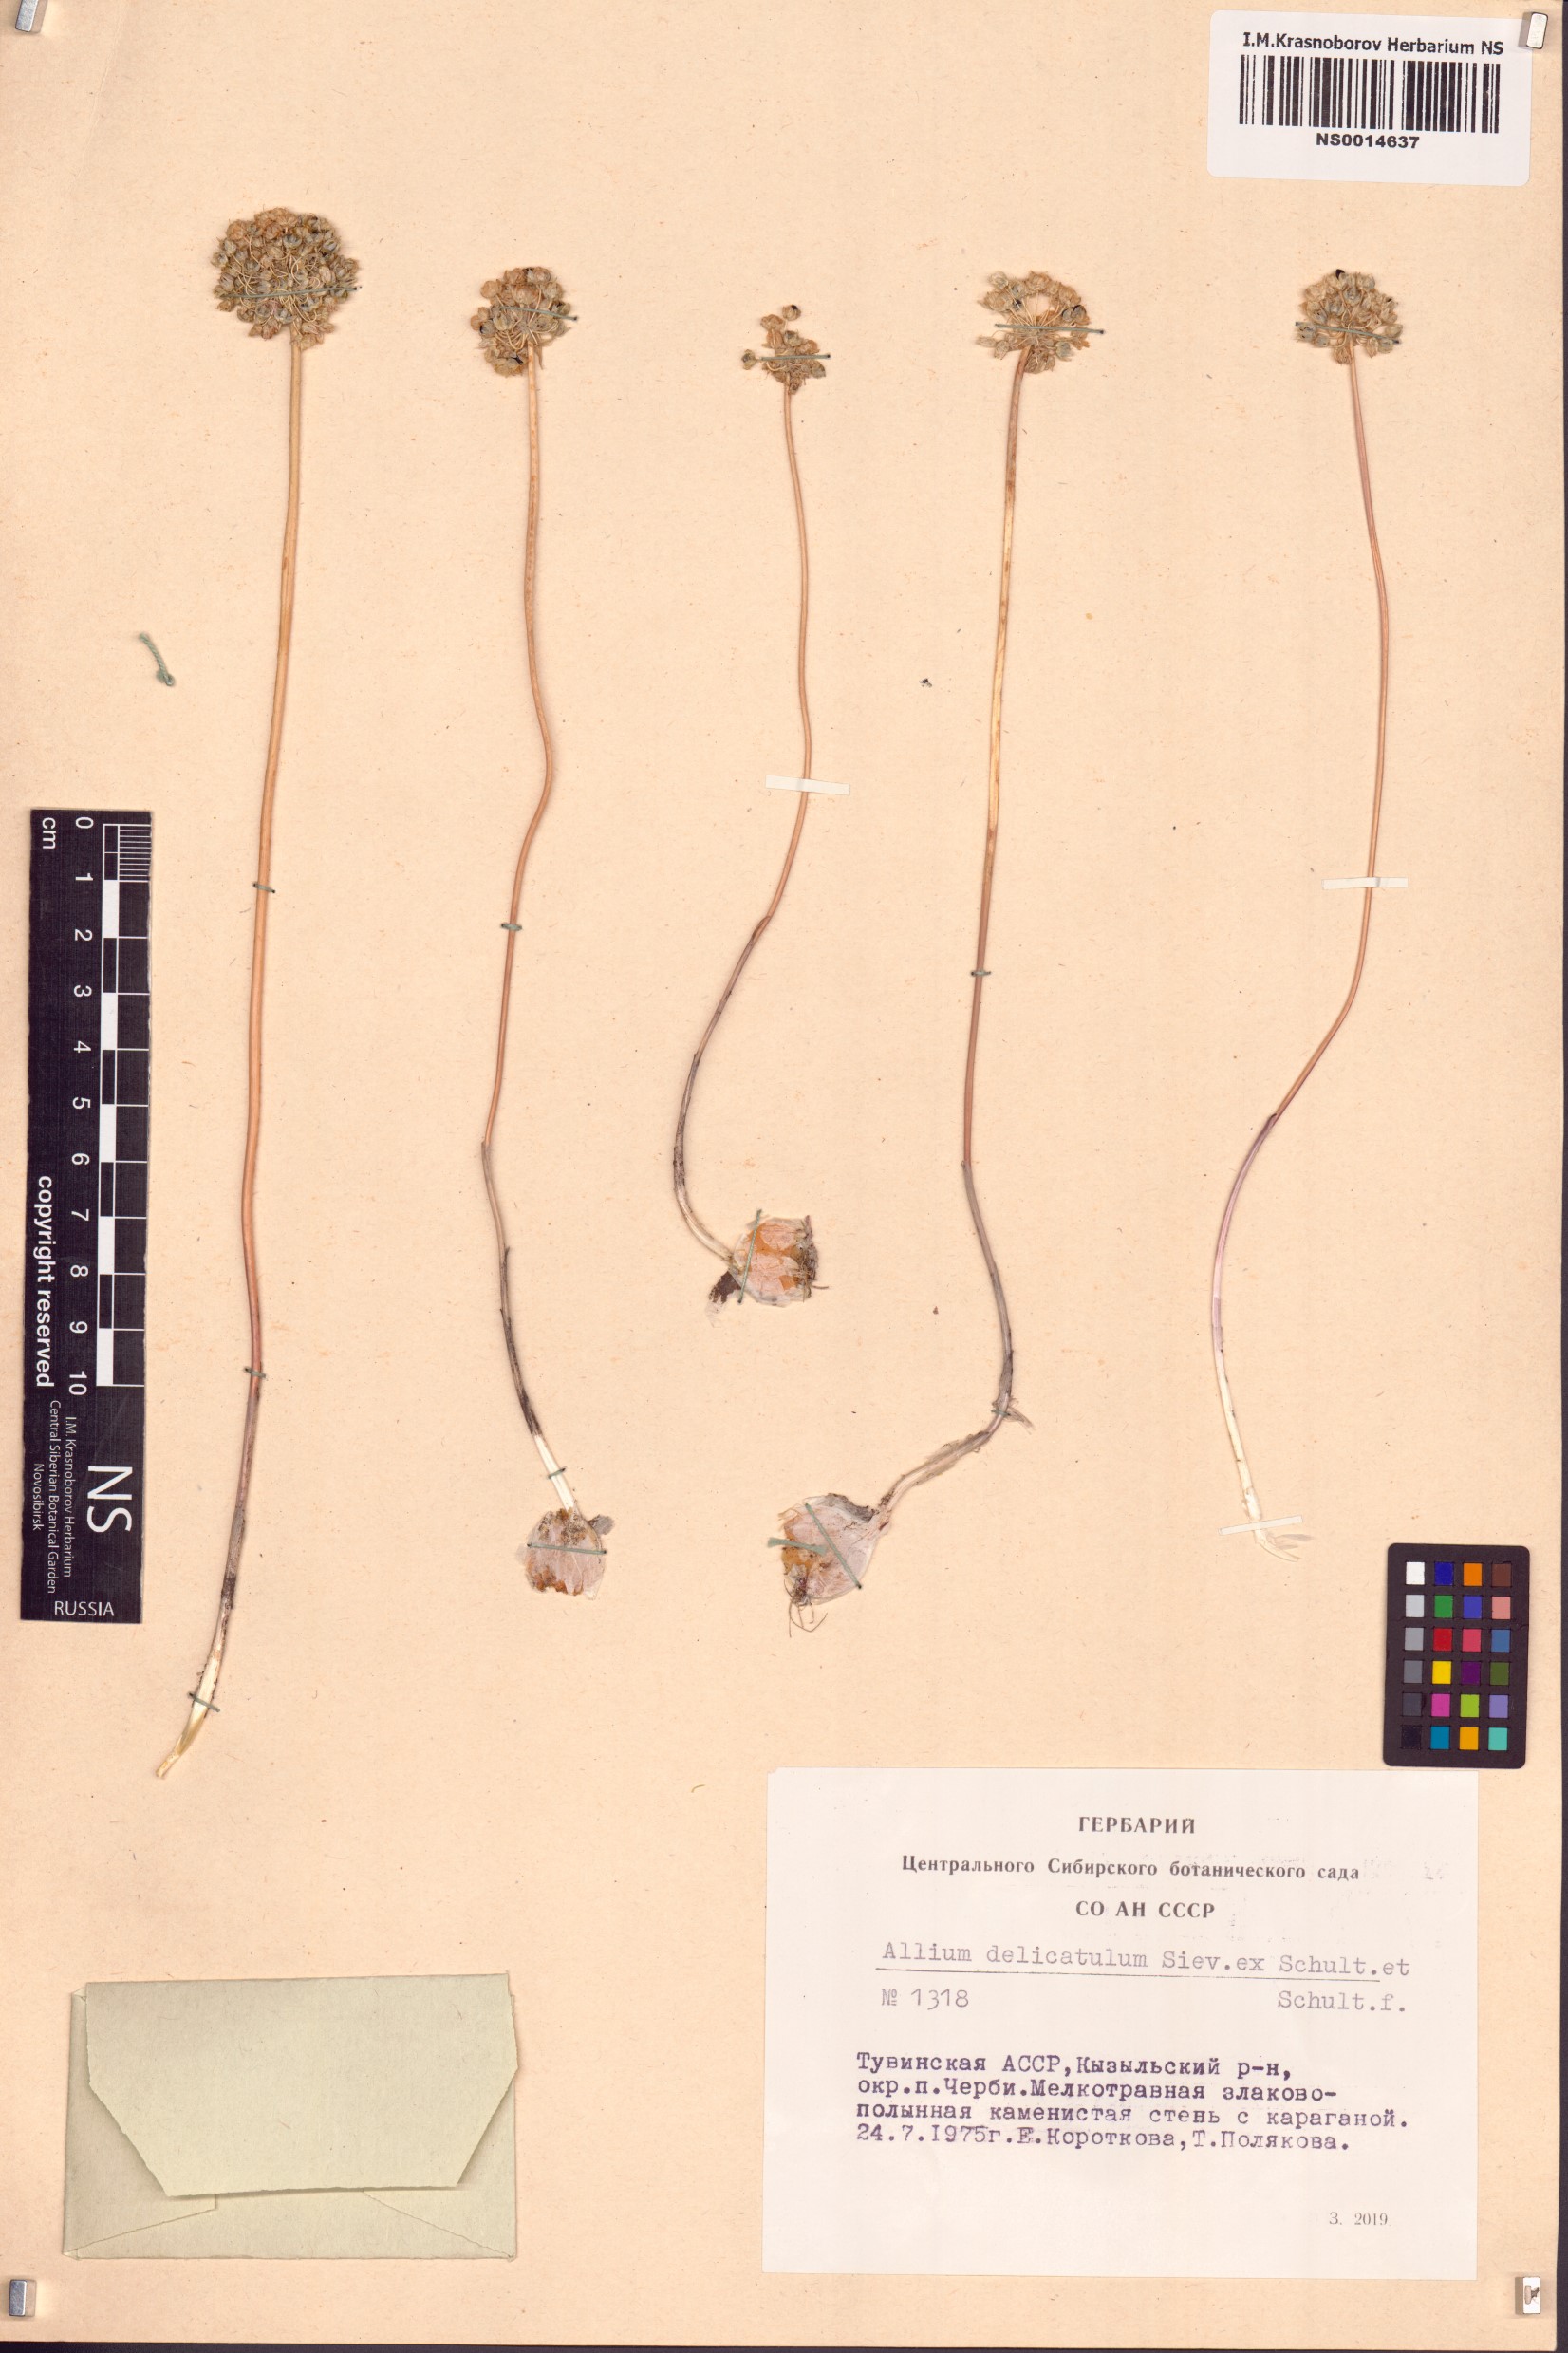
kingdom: Plantae
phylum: Tracheophyta
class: Liliopsida
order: Asparagales
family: Amaryllidaceae
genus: Allium
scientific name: Allium delicatulum
